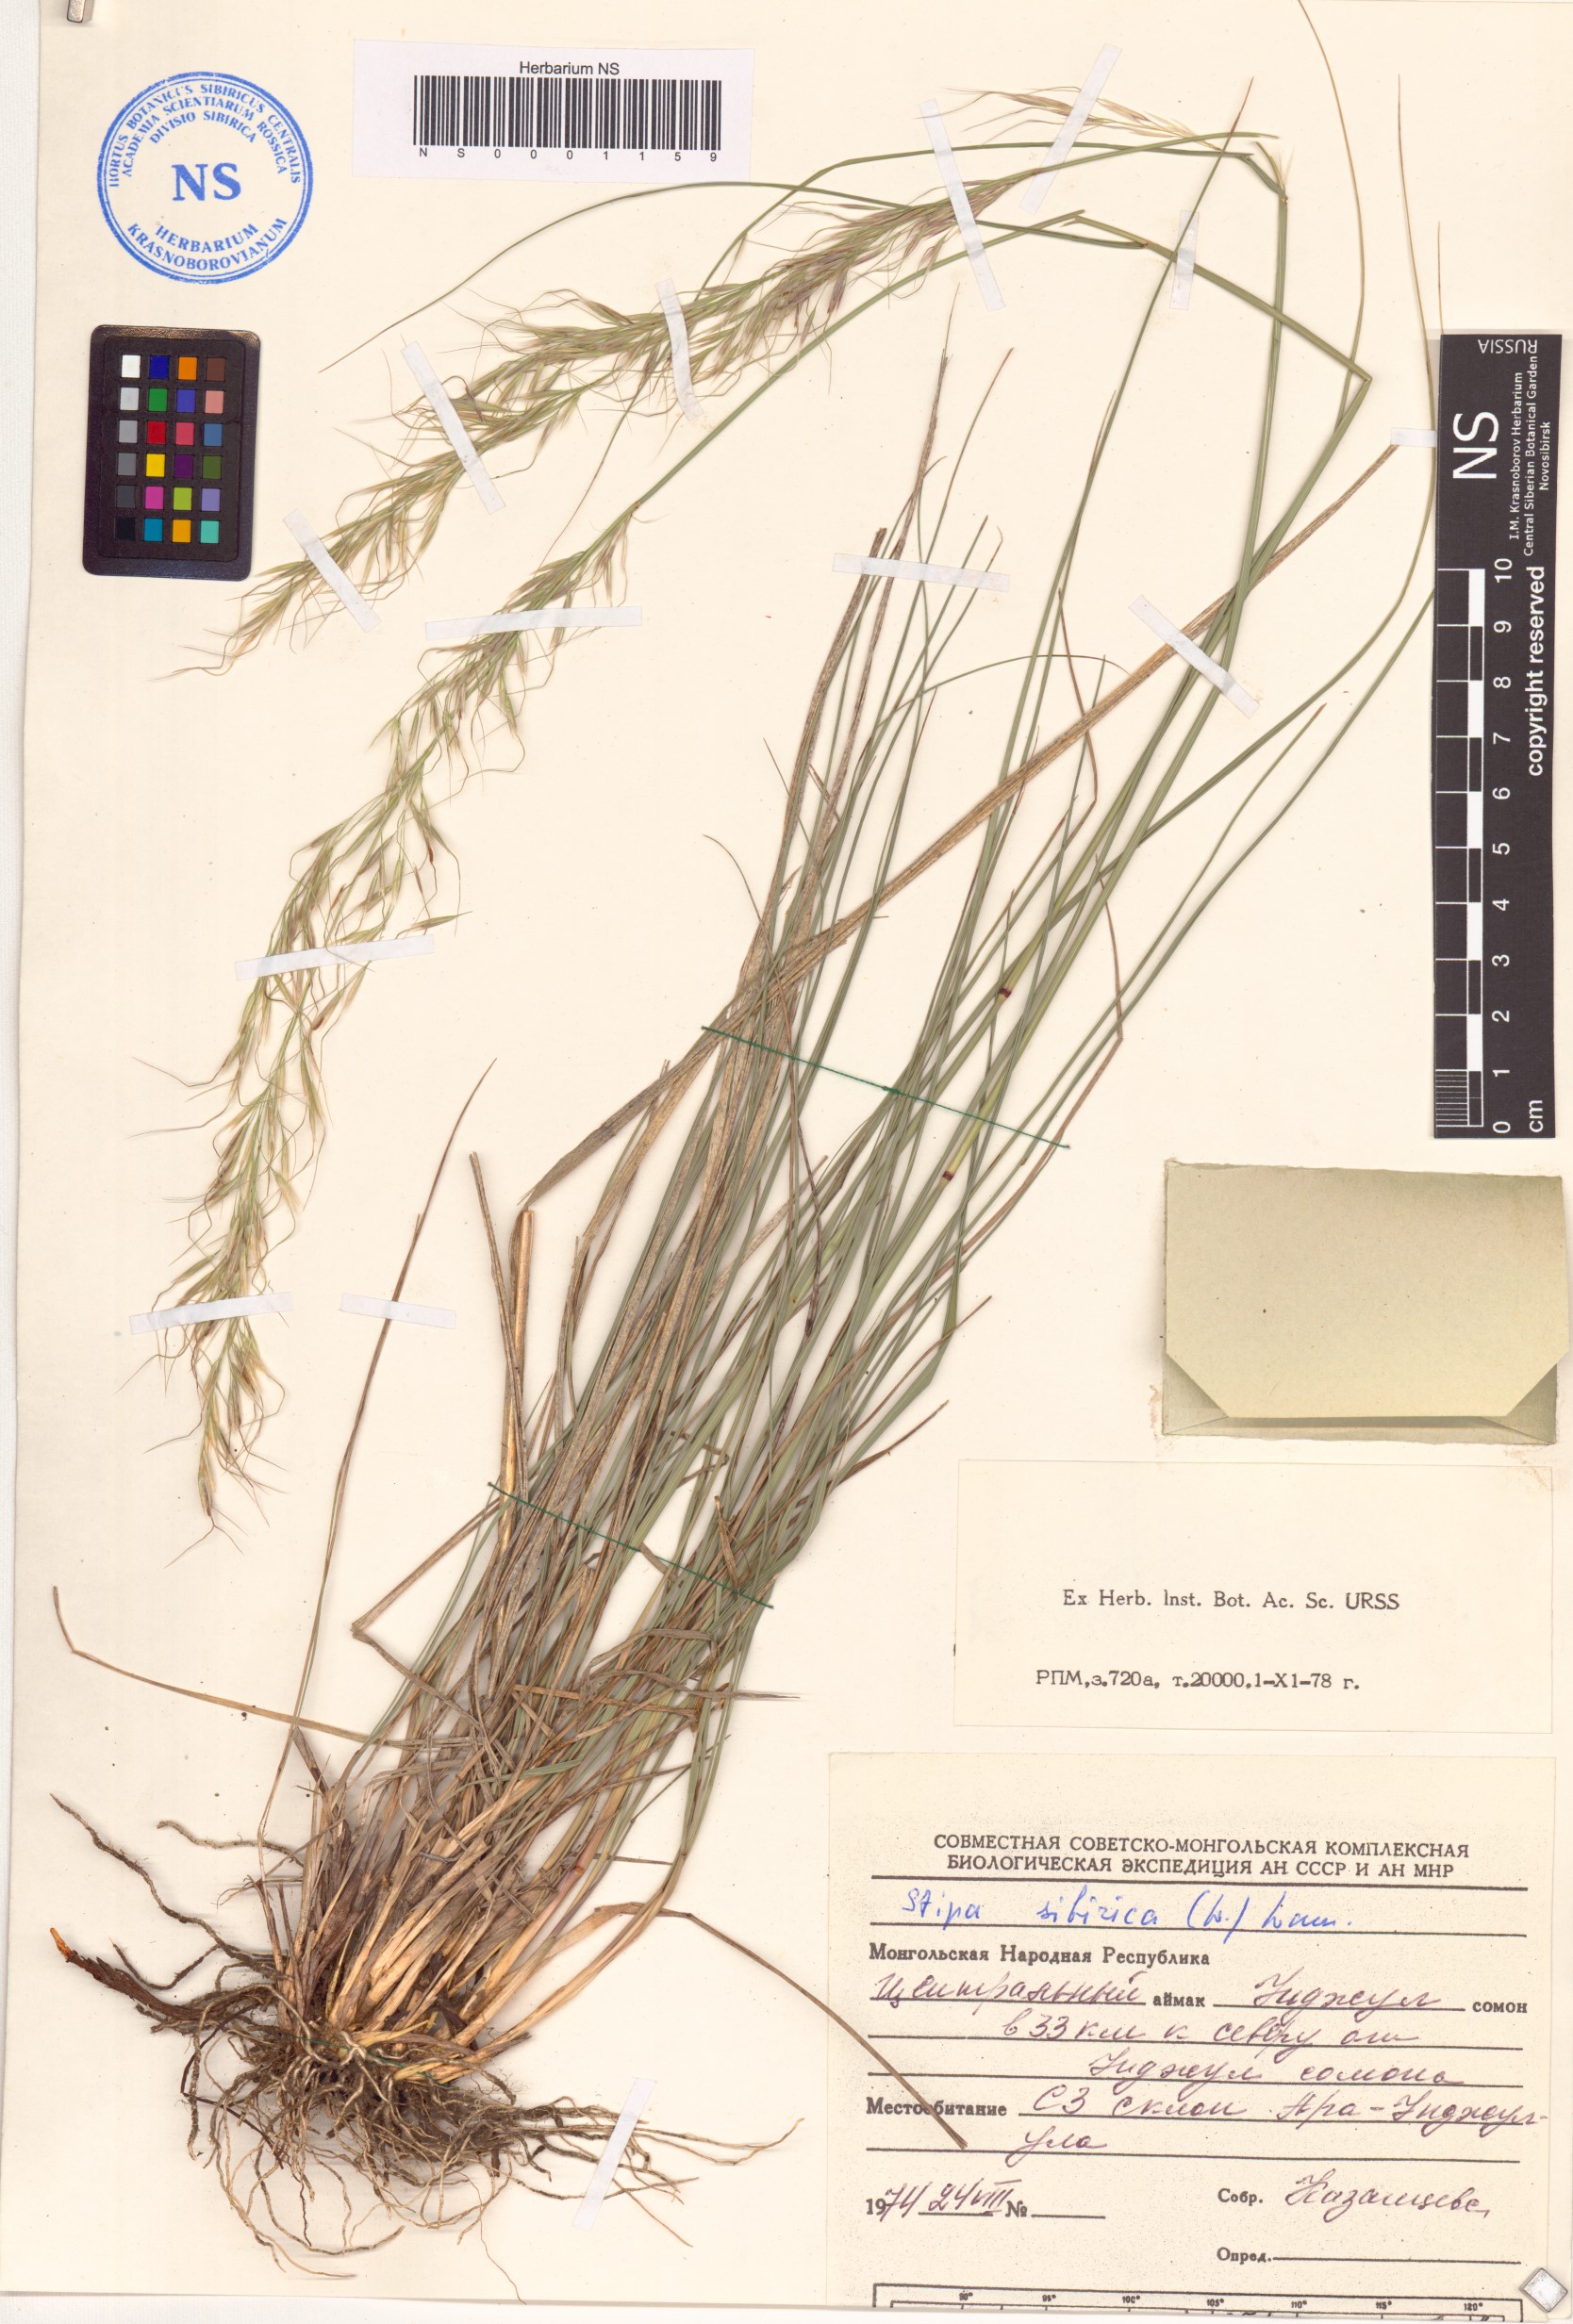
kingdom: Plantae
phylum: Tracheophyta
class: Liliopsida
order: Poales
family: Poaceae
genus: Achnatherum
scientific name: Achnatherum sibiricum
